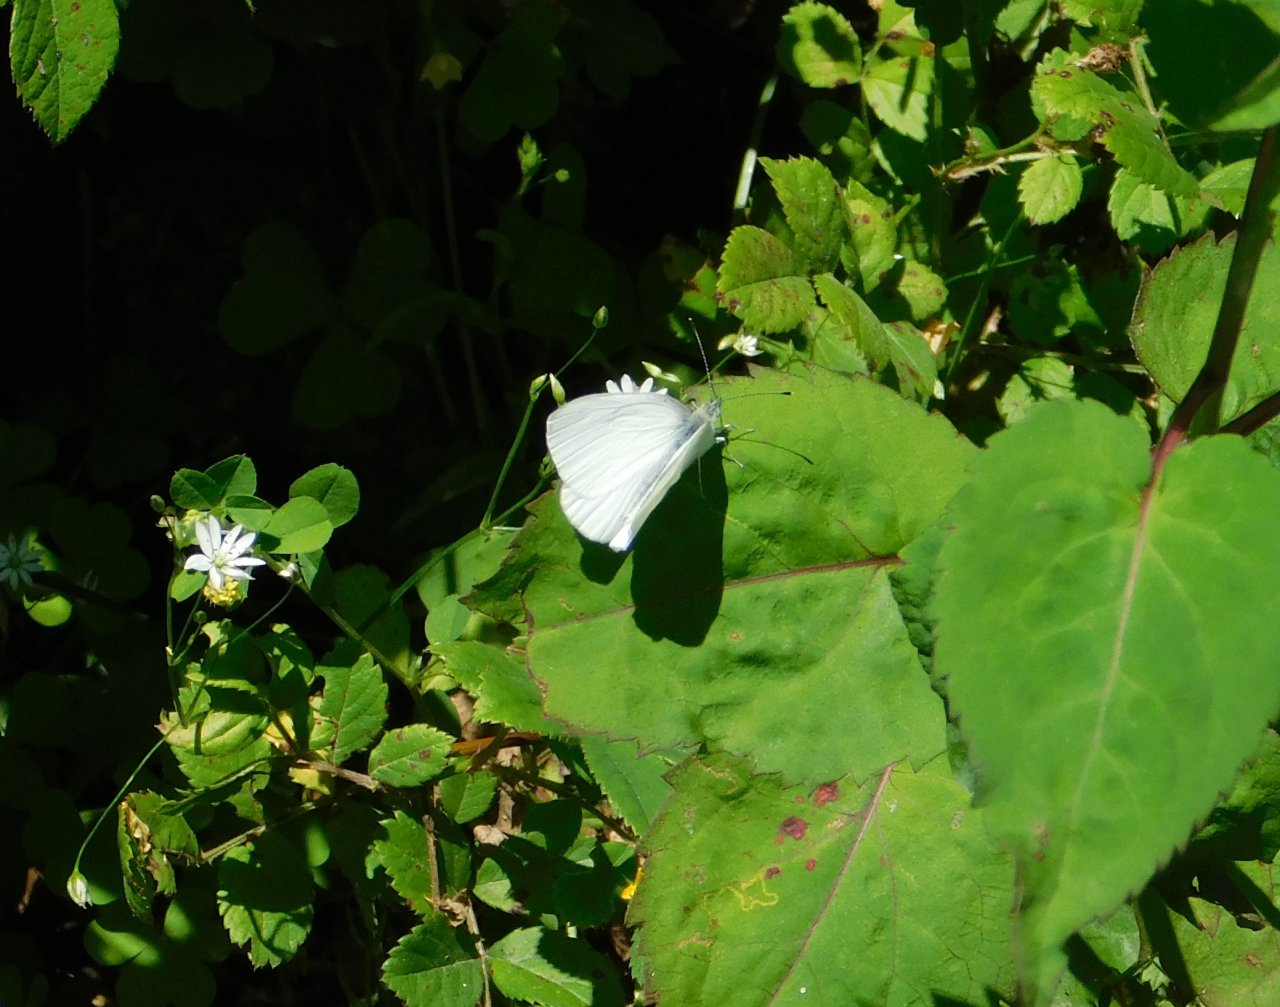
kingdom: Animalia
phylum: Arthropoda
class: Insecta
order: Lepidoptera
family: Pieridae
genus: Pieris
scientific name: Pieris oleracea
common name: Mustard White
